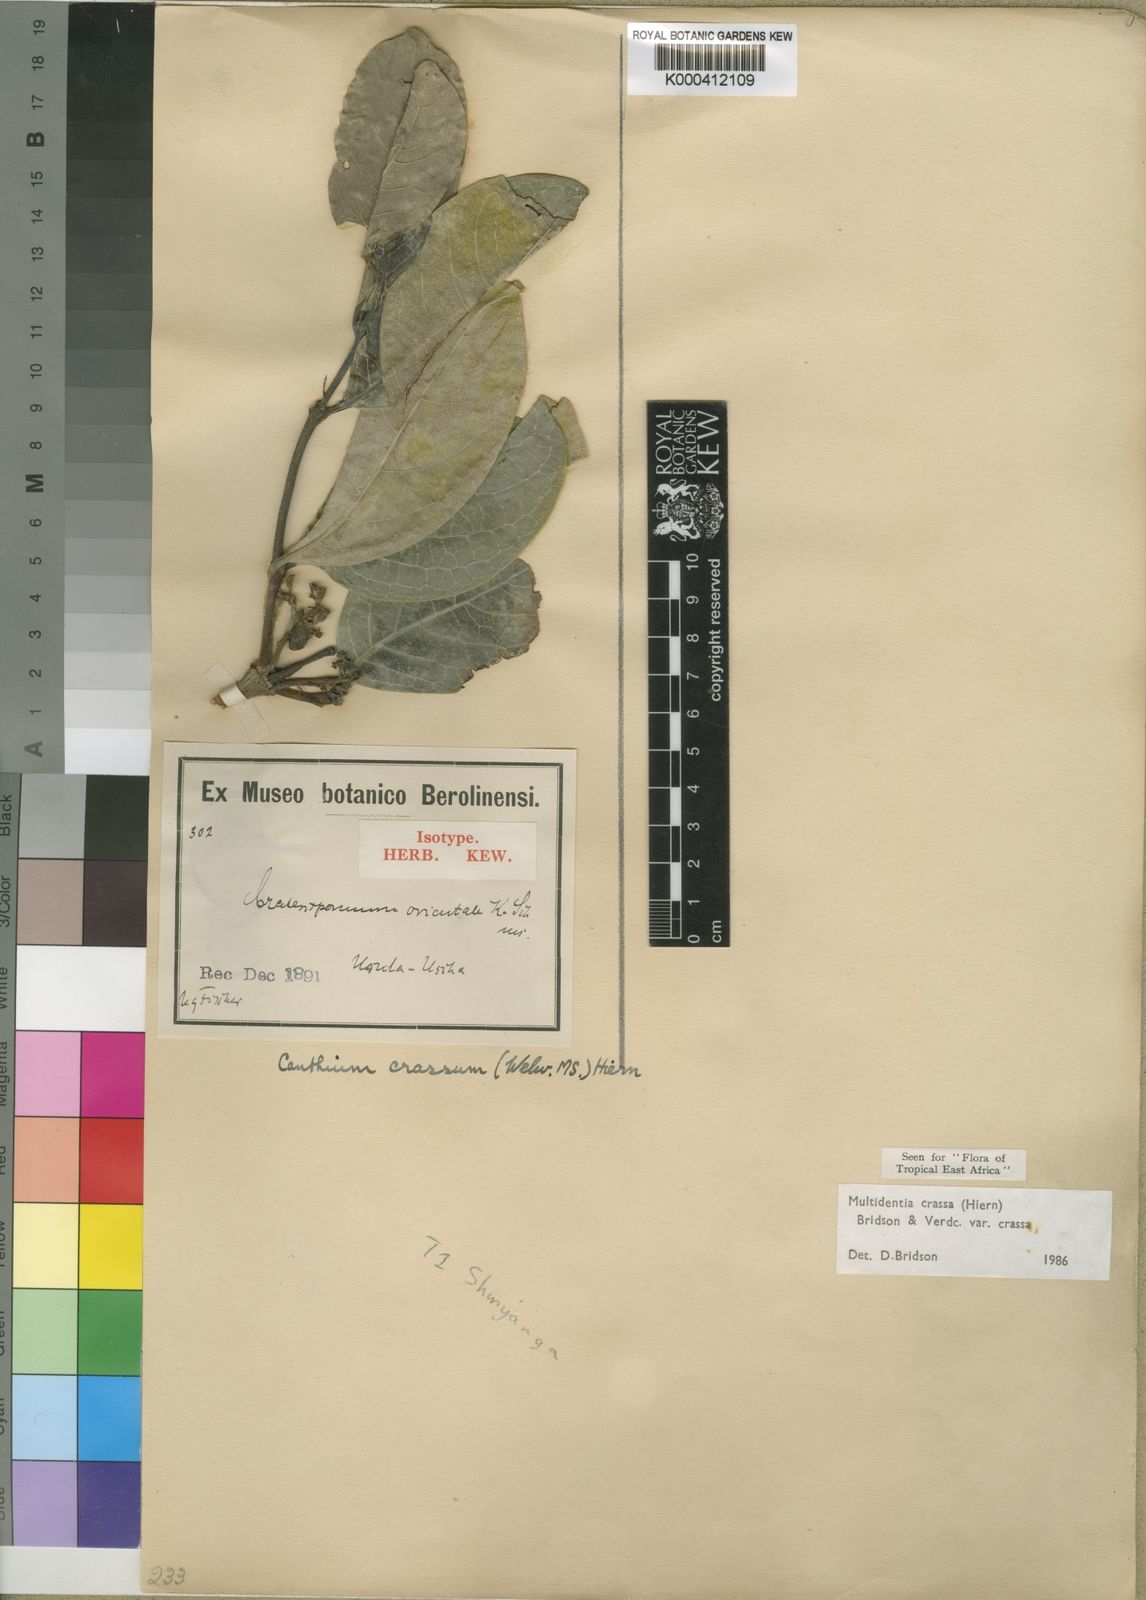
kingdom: Plantae
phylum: Tracheophyta
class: Magnoliopsida
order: Gentianales
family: Rubiaceae
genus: Multidentia
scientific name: Multidentia crassa
